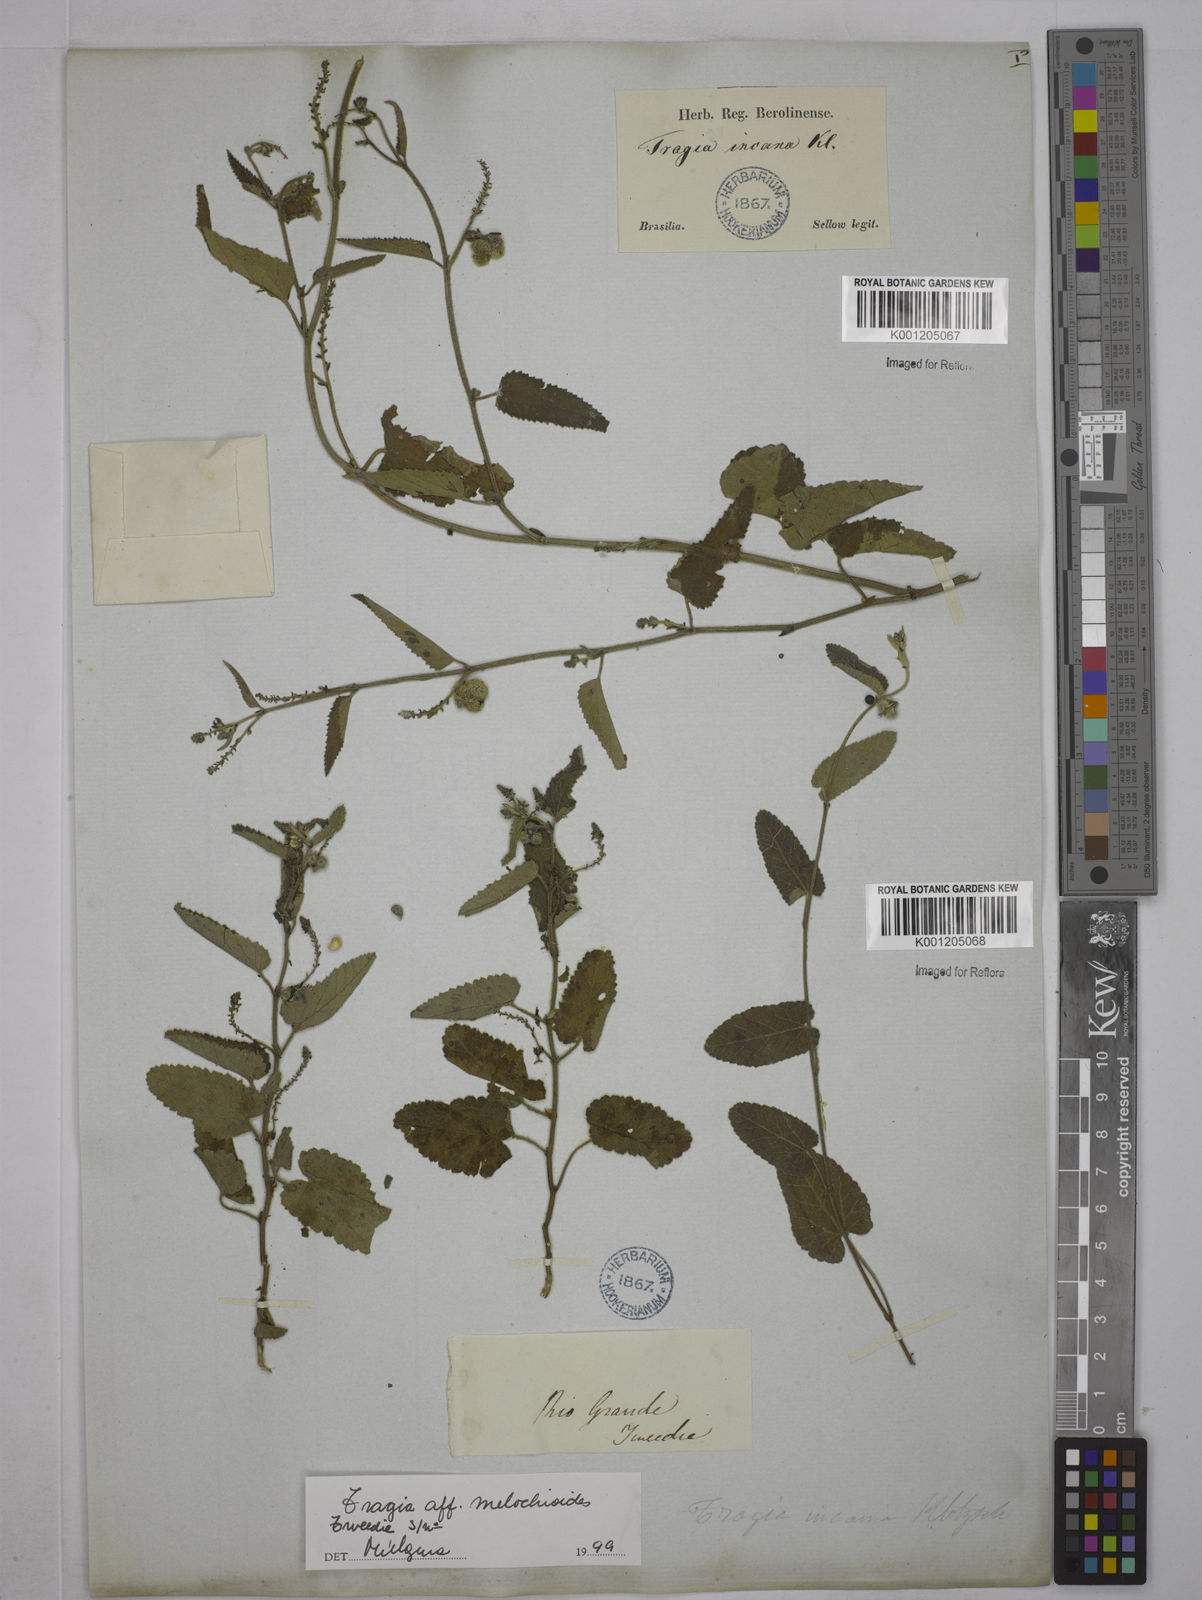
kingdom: Plantae
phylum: Tracheophyta
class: Magnoliopsida
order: Malpighiales
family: Euphorbiaceae
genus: Tragia
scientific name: Tragia
